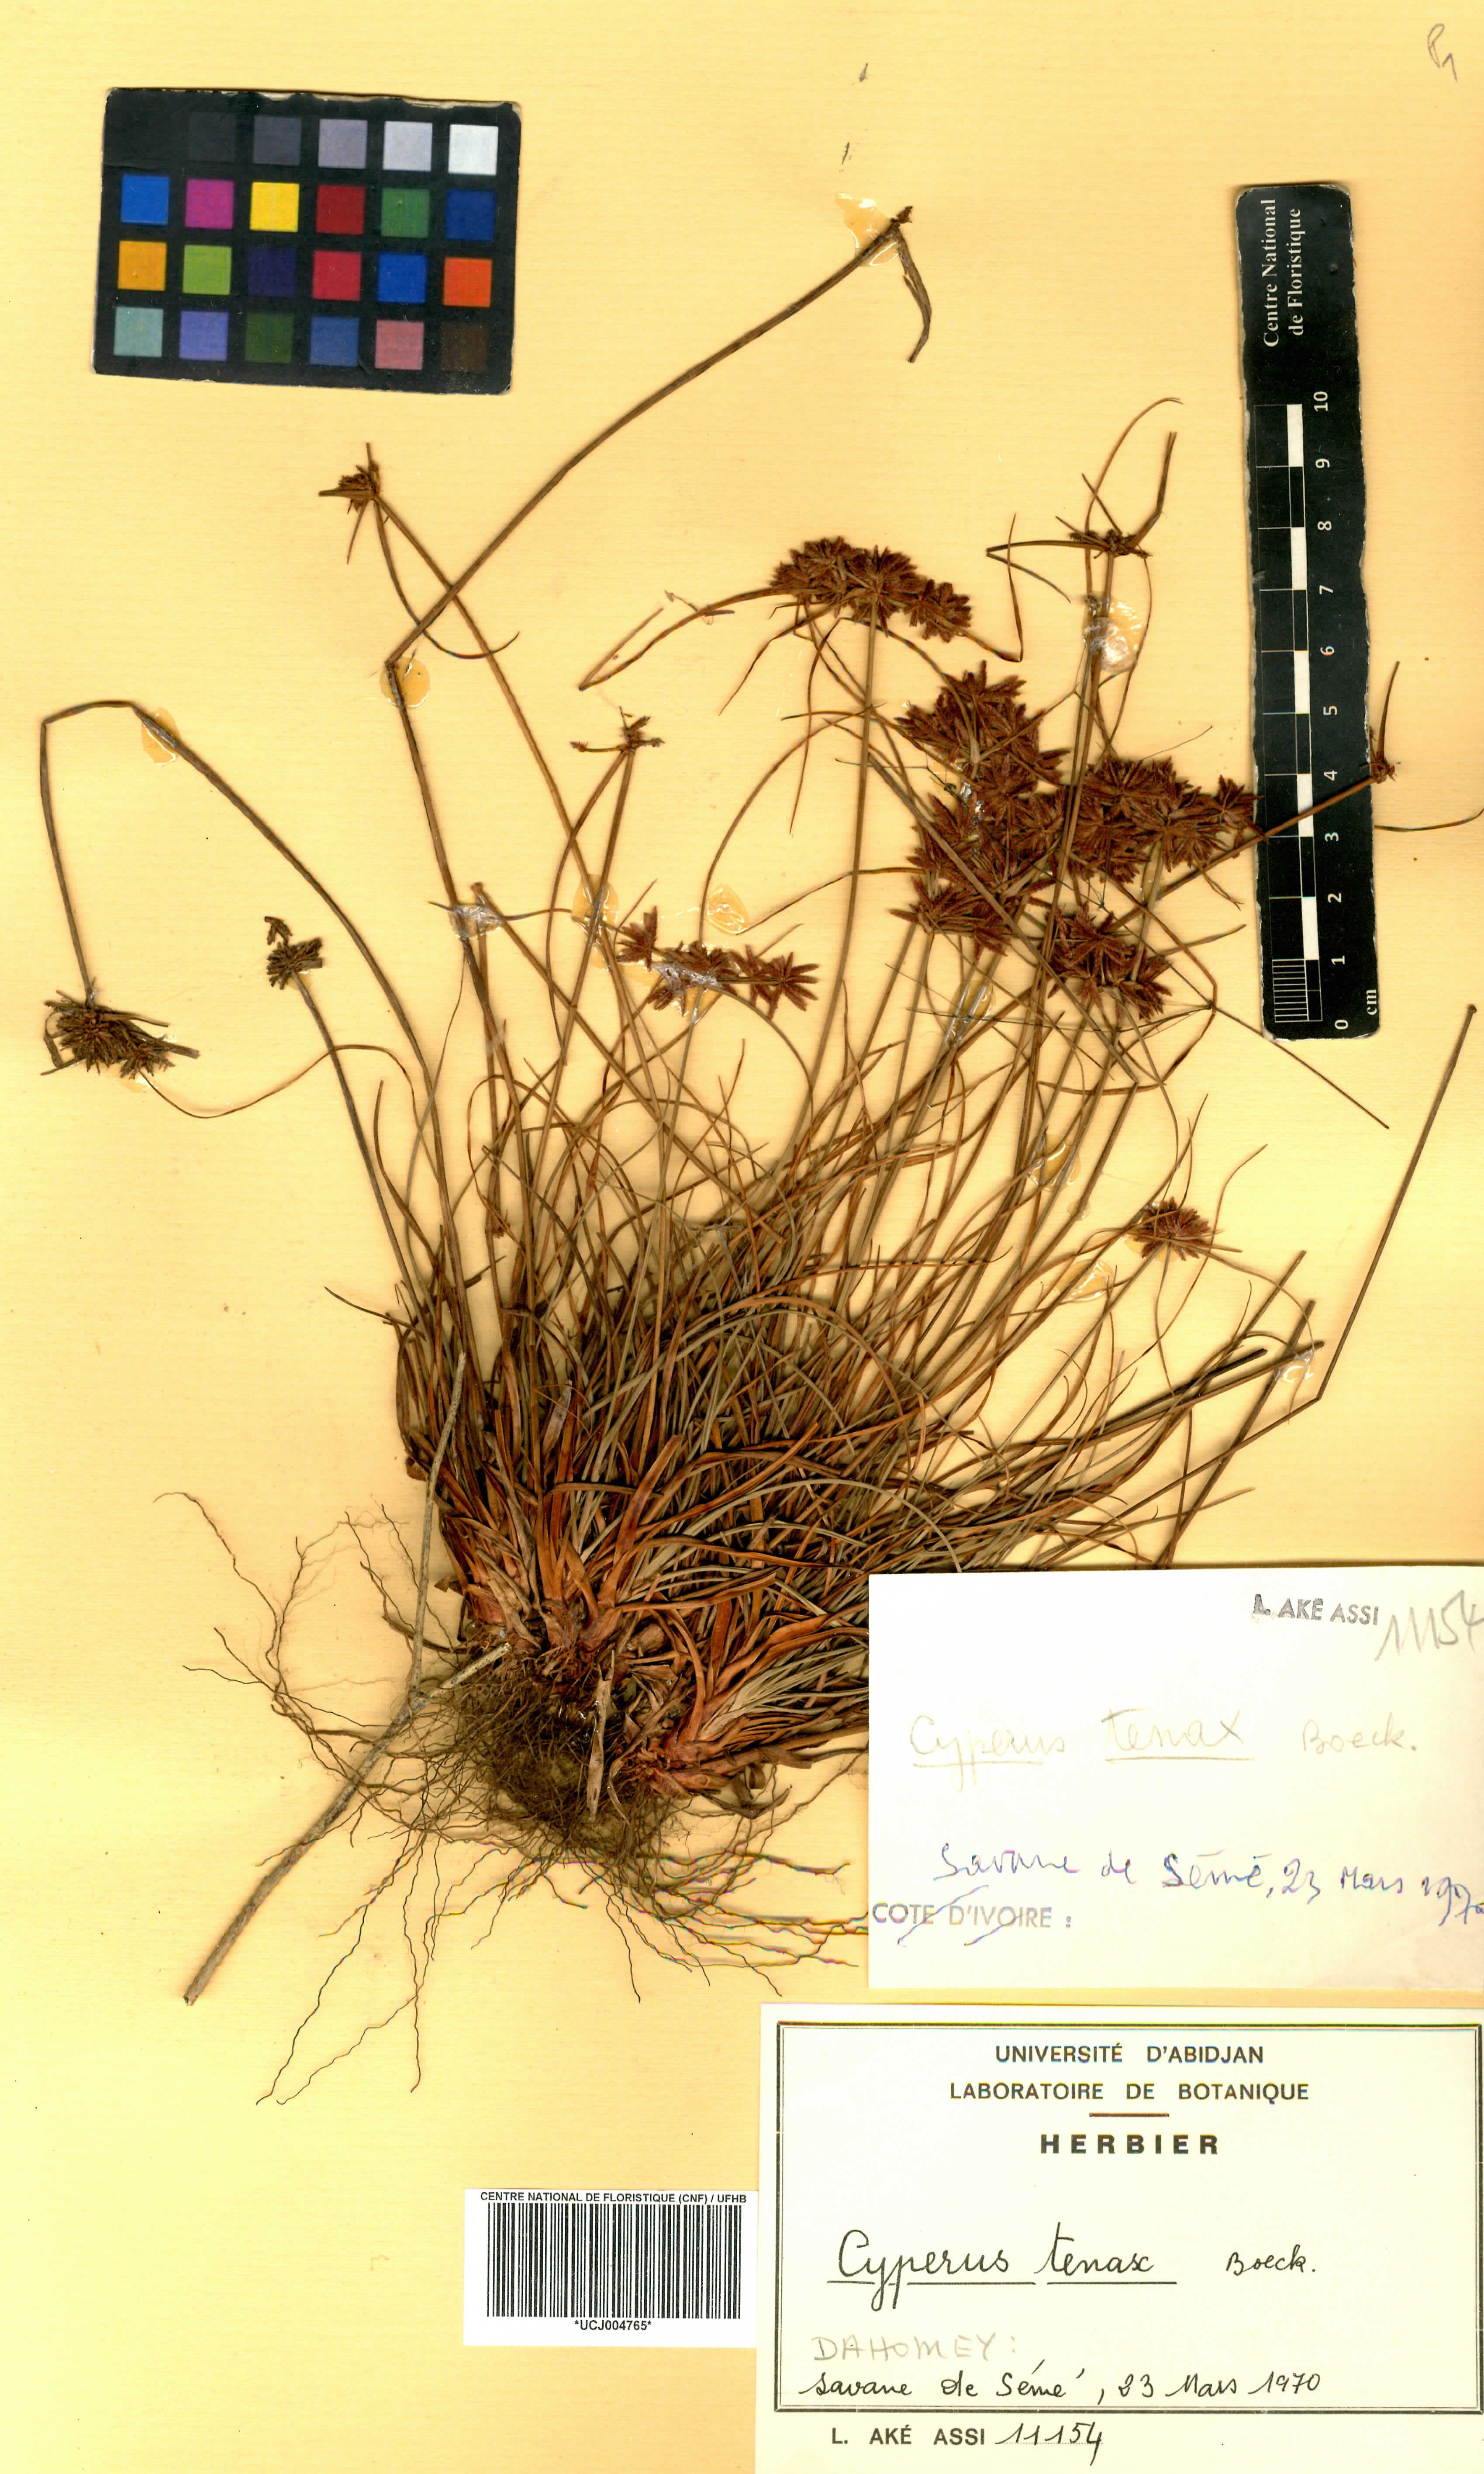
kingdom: Plantae
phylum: Tracheophyta
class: Liliopsida
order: Poales
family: Cyperaceae
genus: Cyperus
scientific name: Cyperus tenax
